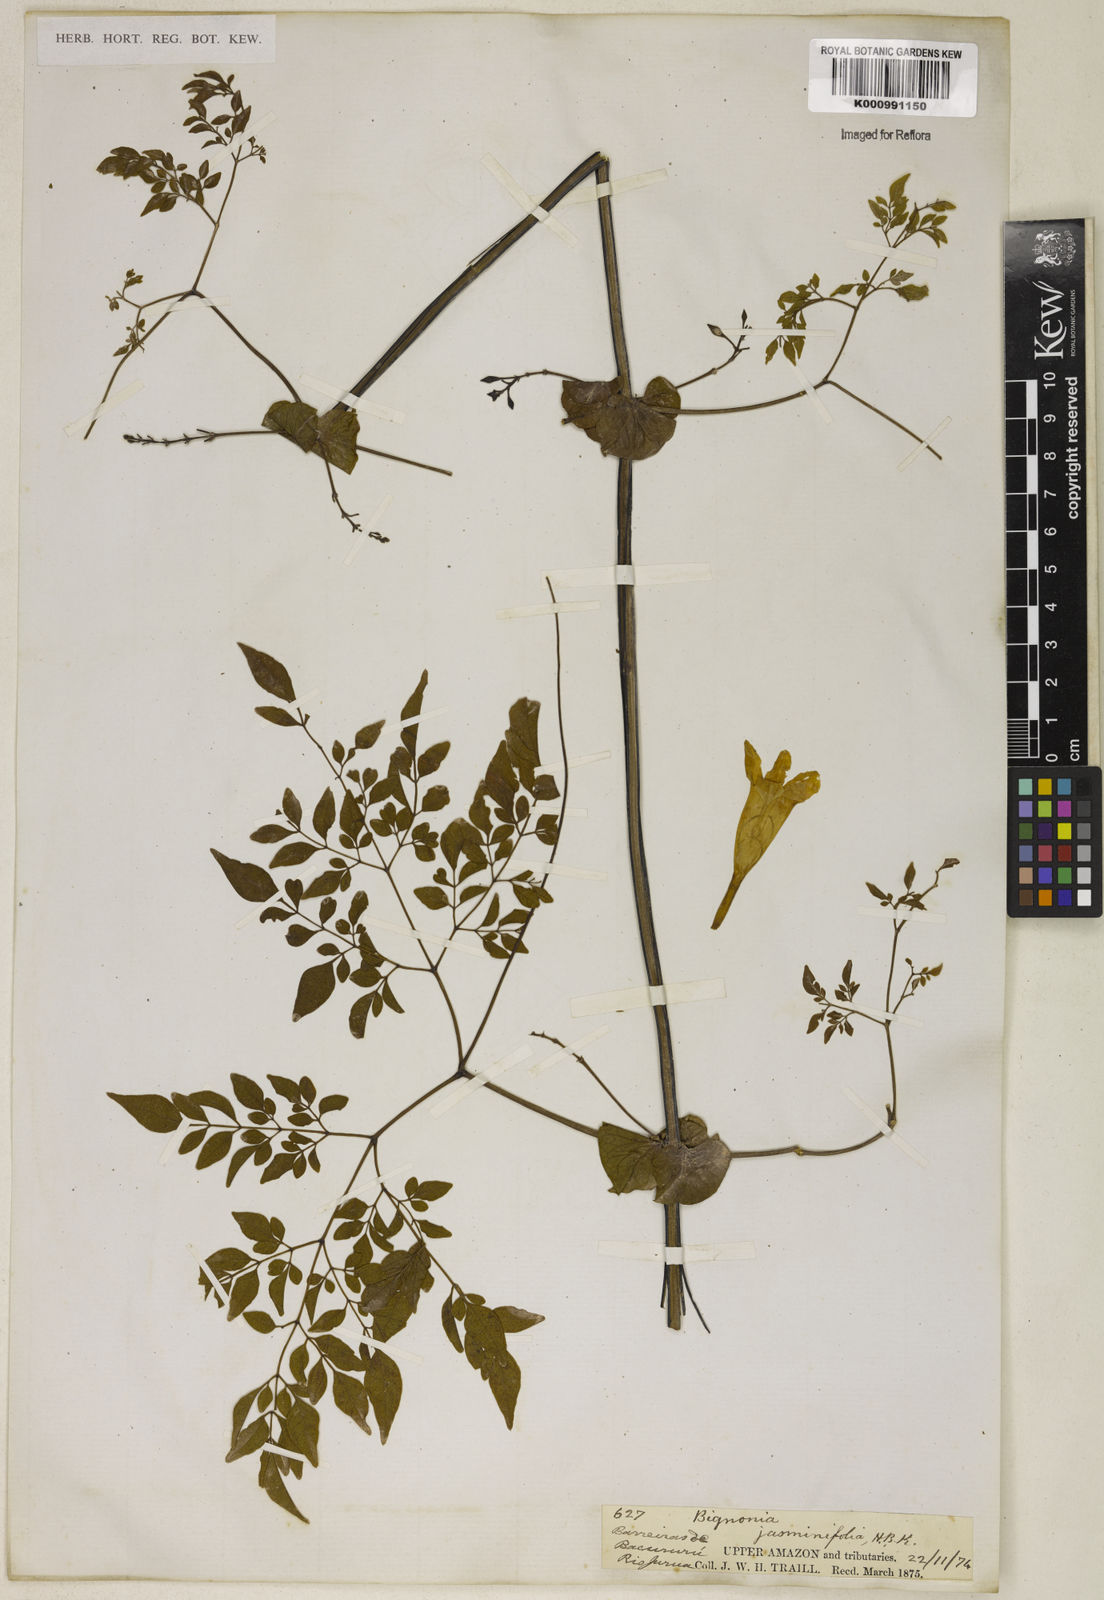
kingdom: Plantae
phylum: Tracheophyta
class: Magnoliopsida
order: Lamiales
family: Bignoniaceae
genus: Pleonotoma
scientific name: Pleonotoma jasminifolia
